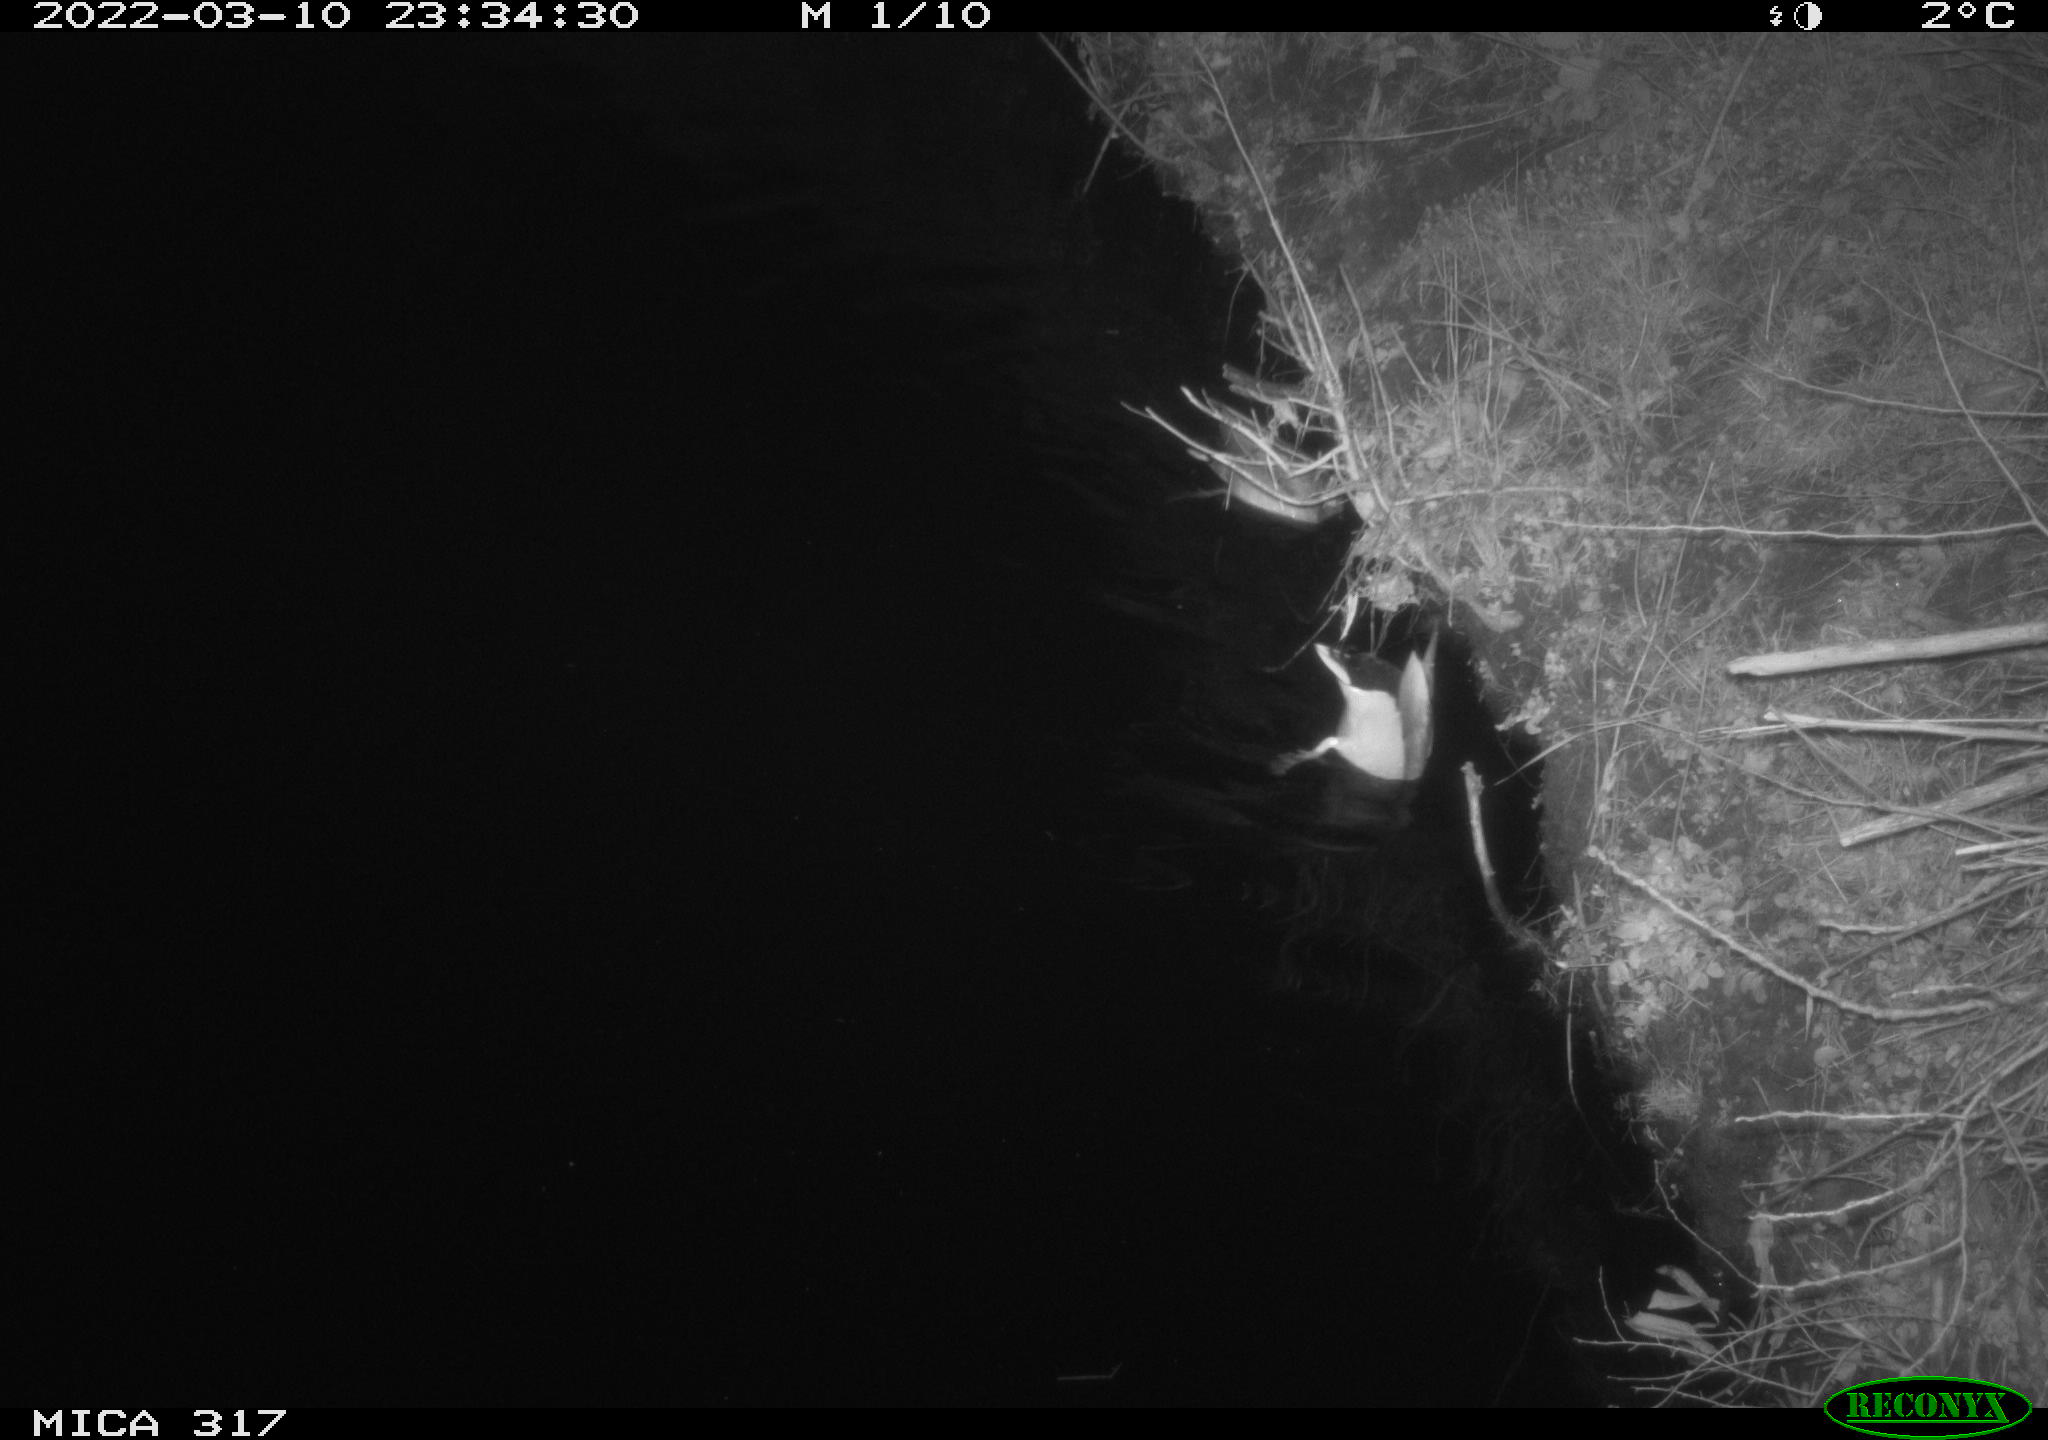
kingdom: Animalia
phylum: Chordata
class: Aves
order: Anseriformes
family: Anatidae
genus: Anas
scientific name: Anas platyrhynchos
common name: Mallard
